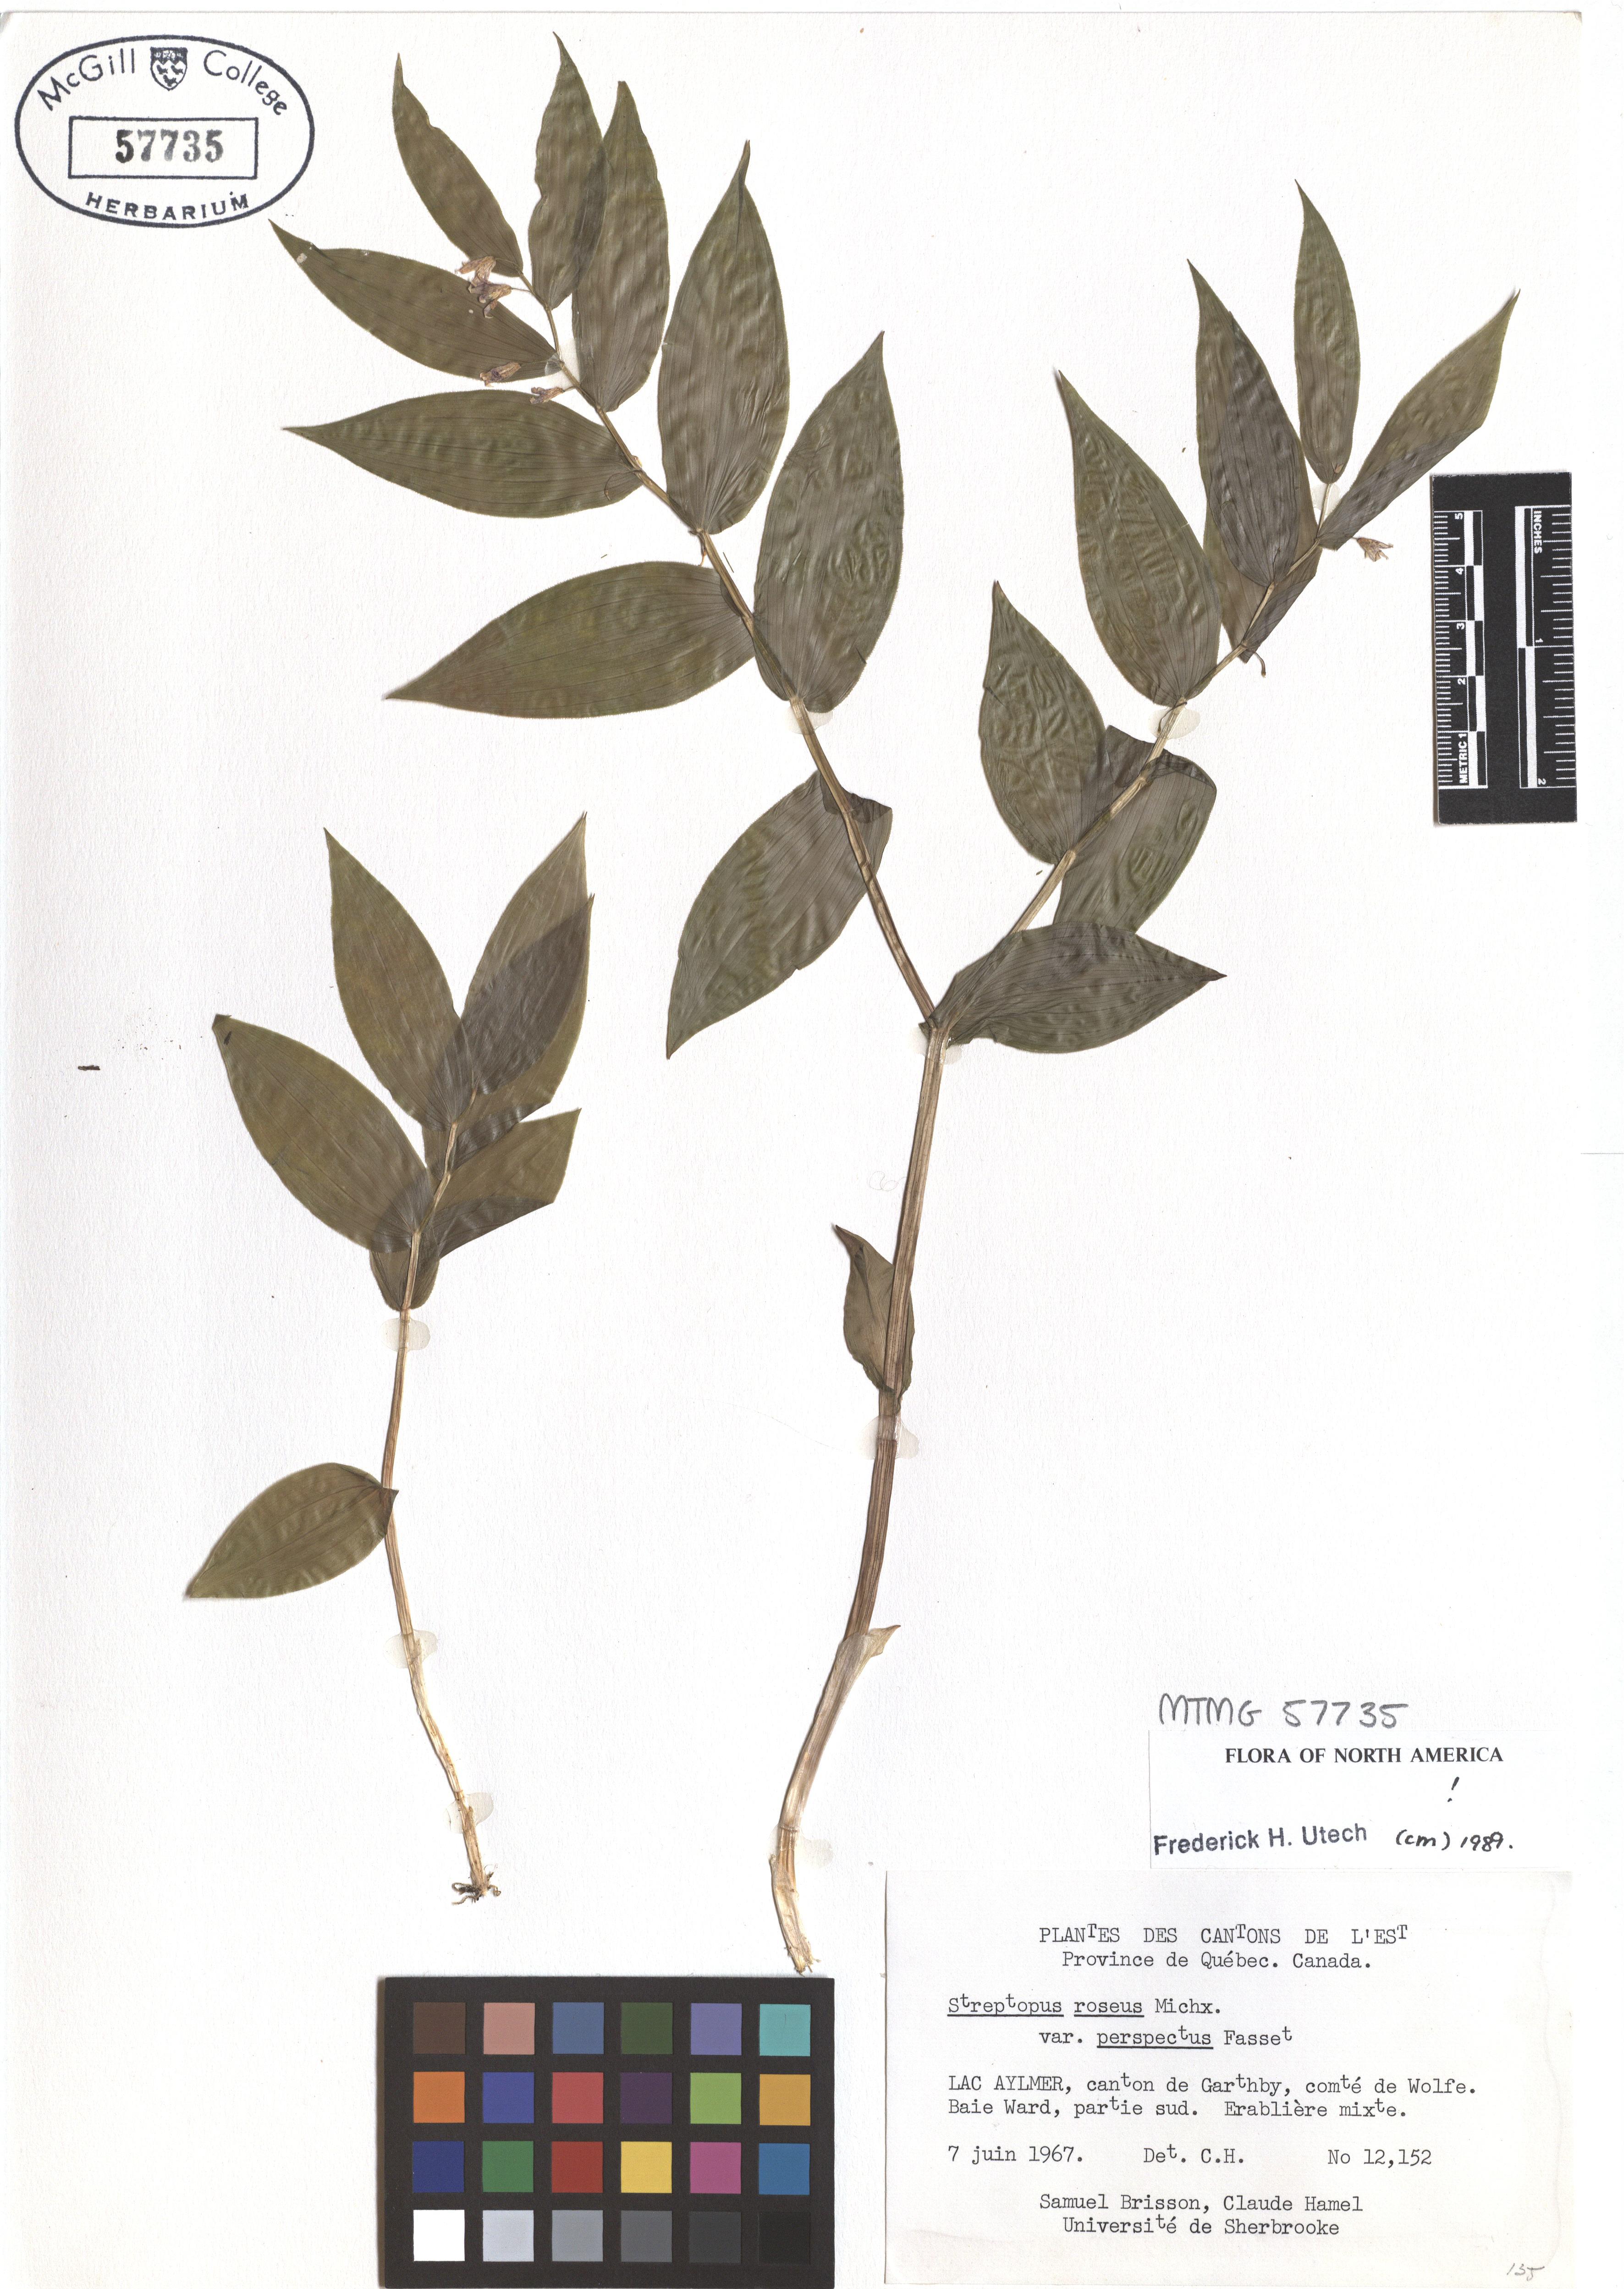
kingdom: Plantae
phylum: Tracheophyta
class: Liliopsida
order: Liliales
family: Liliaceae
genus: Streptopus
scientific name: Streptopus lanceolatus
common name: Rose mandarin
